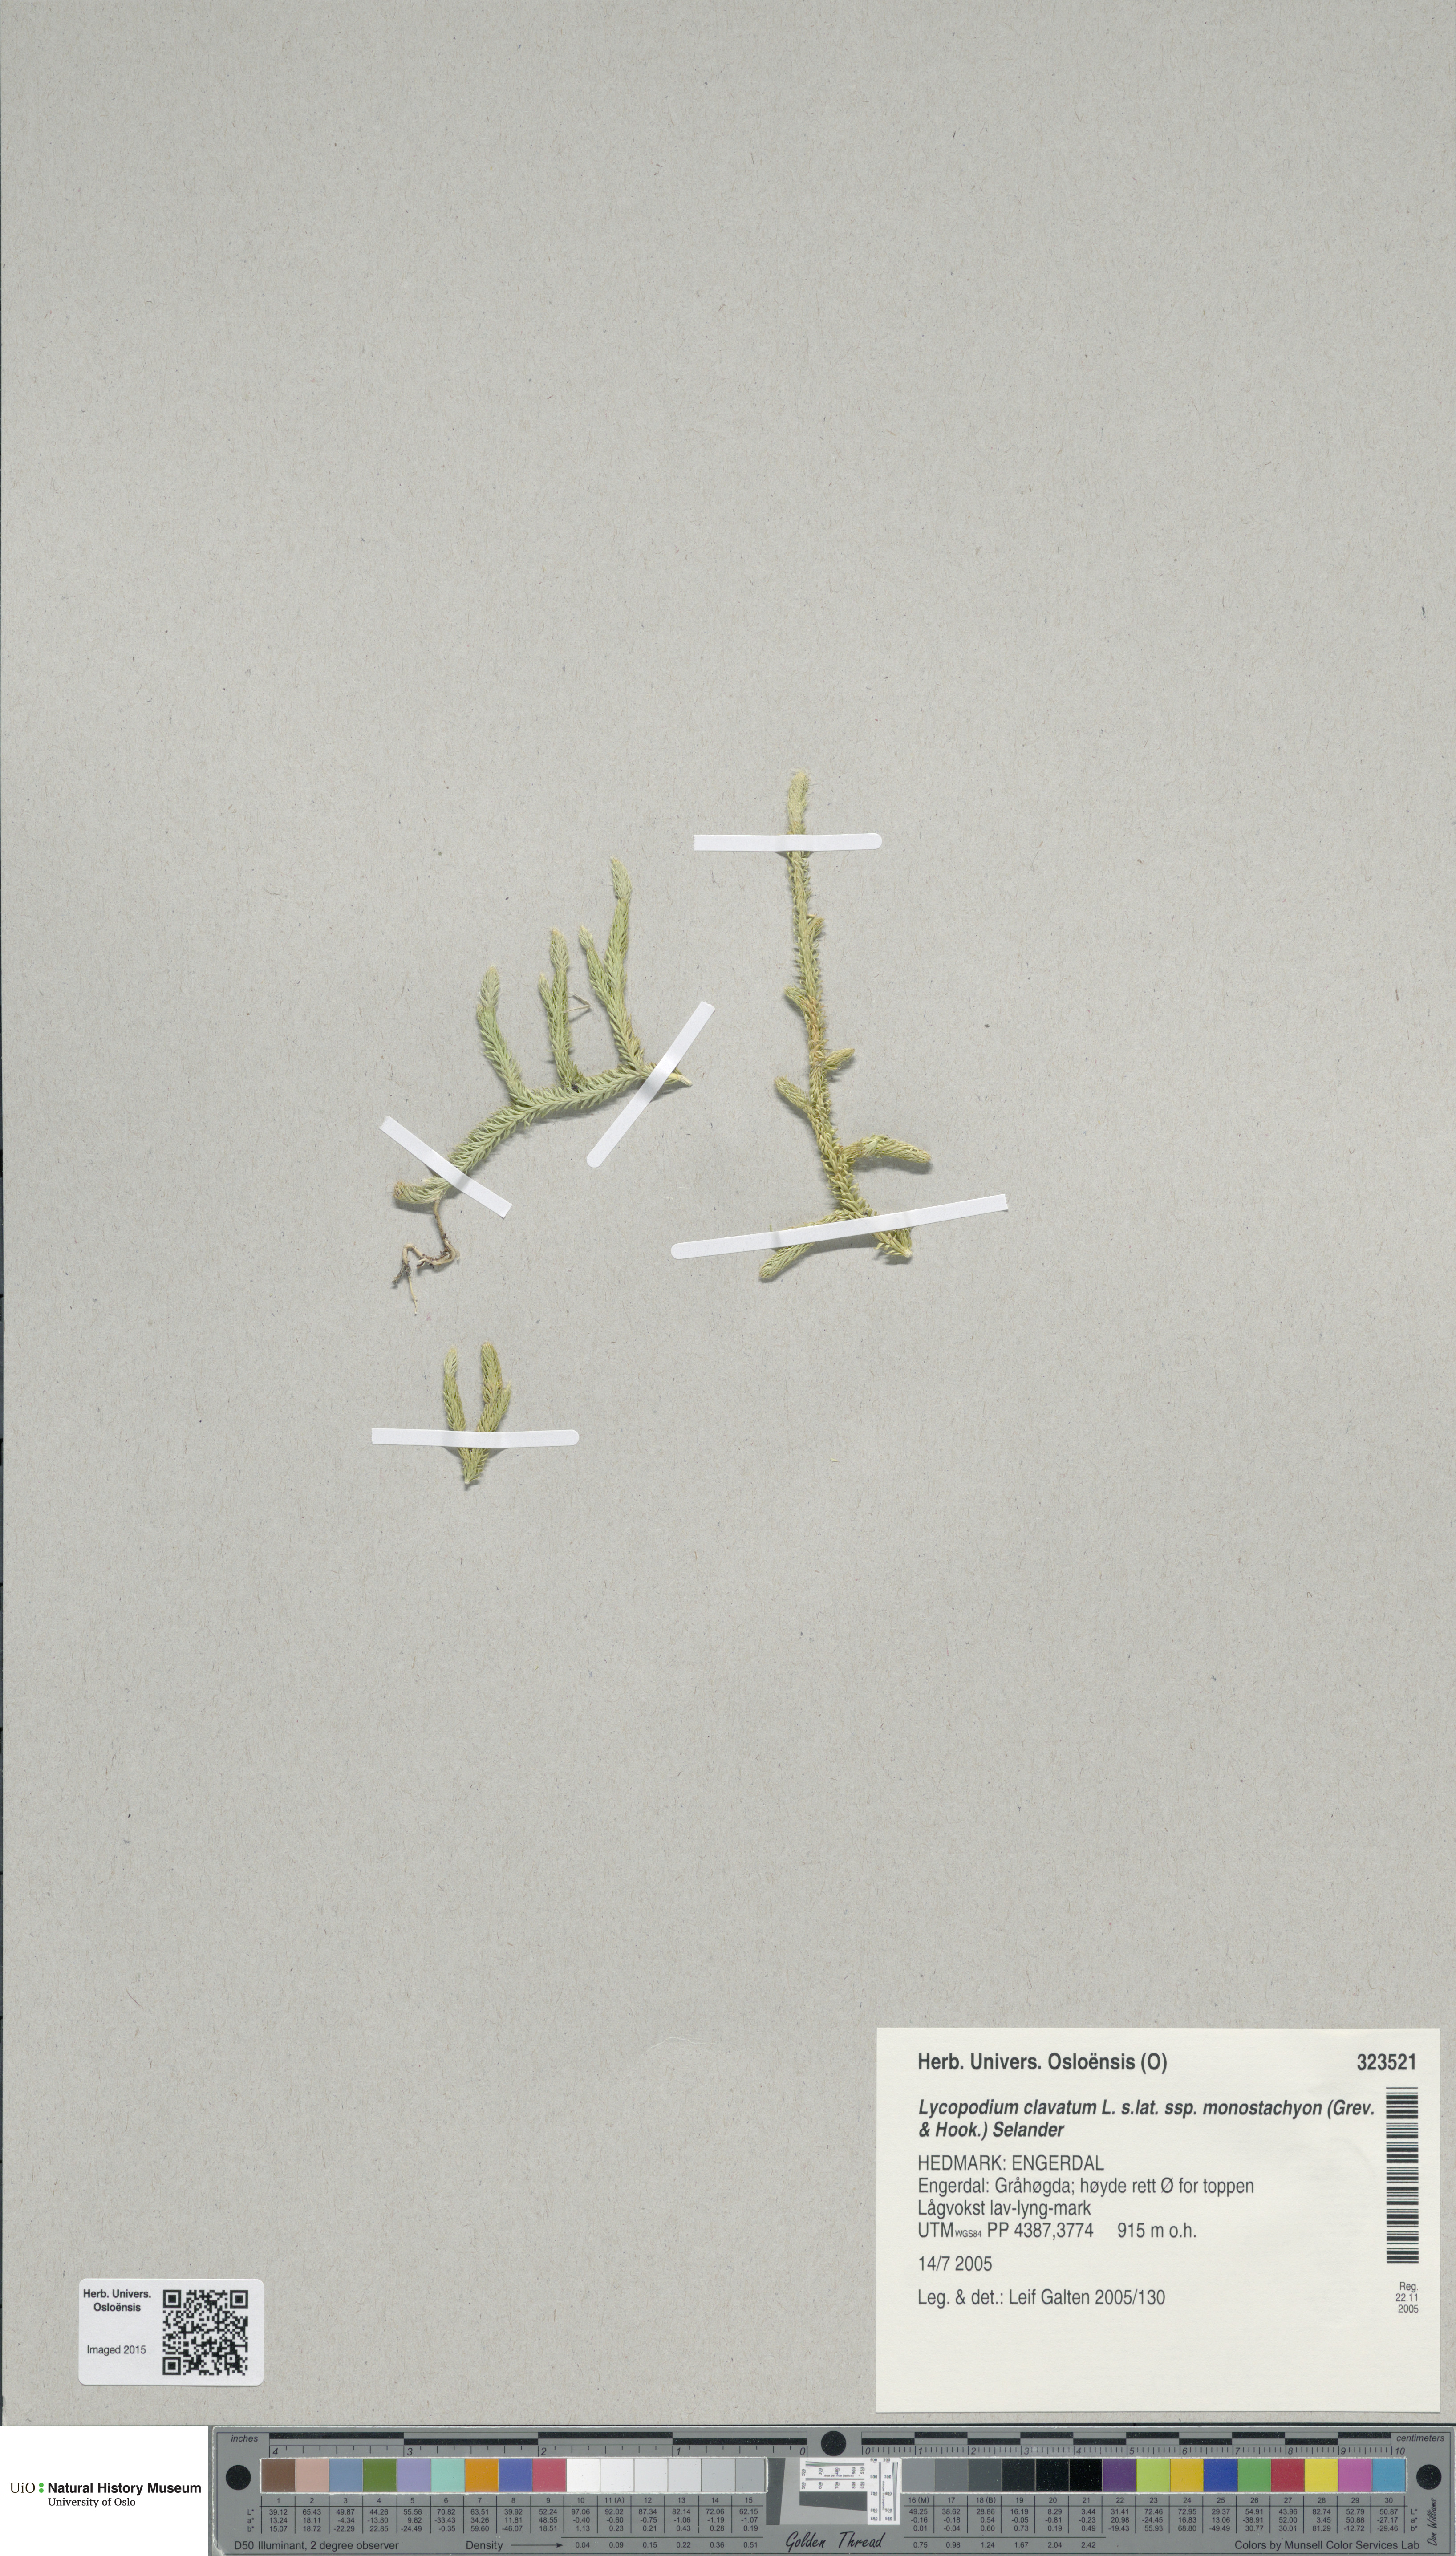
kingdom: Plantae
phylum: Tracheophyta
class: Lycopodiopsida
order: Lycopodiales
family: Lycopodiaceae
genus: Lycopodium
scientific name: Lycopodium lagopus
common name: One-cone clubmoss
